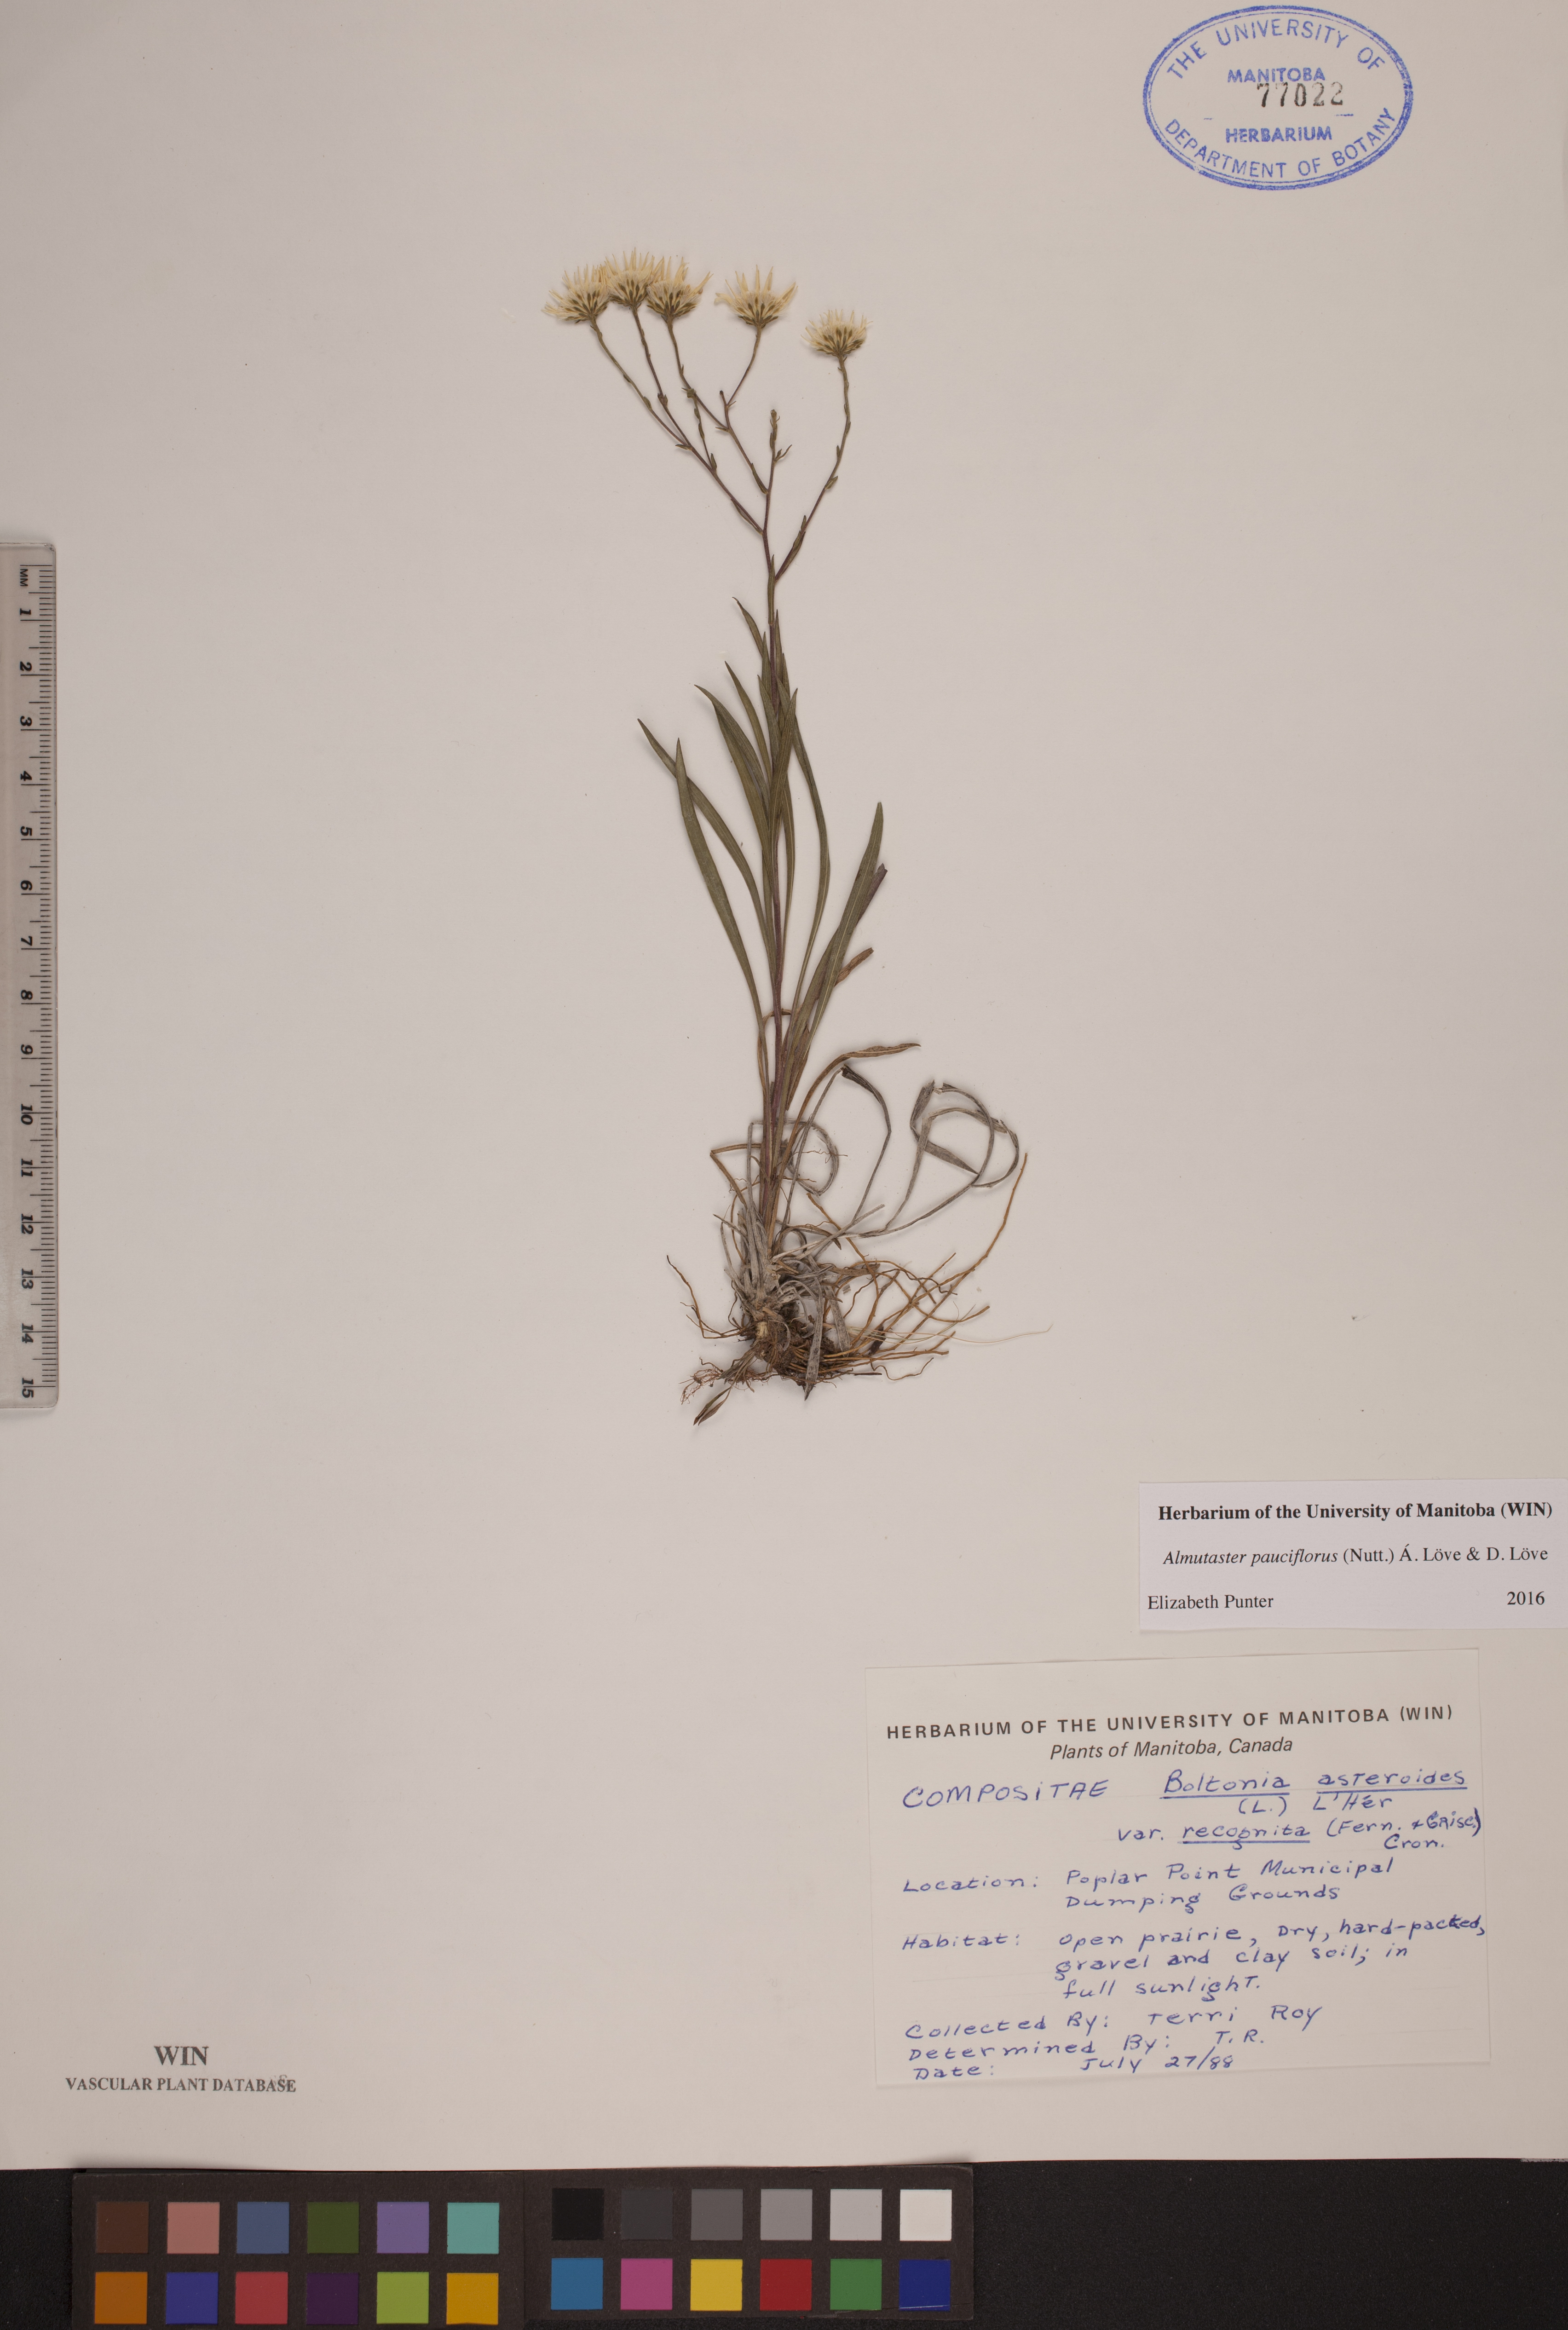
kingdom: Plantae
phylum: Tracheophyta
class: Magnoliopsida
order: Asterales
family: Asteraceae
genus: Almutaster
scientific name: Almutaster pauciflorus
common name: Alkaline aster
